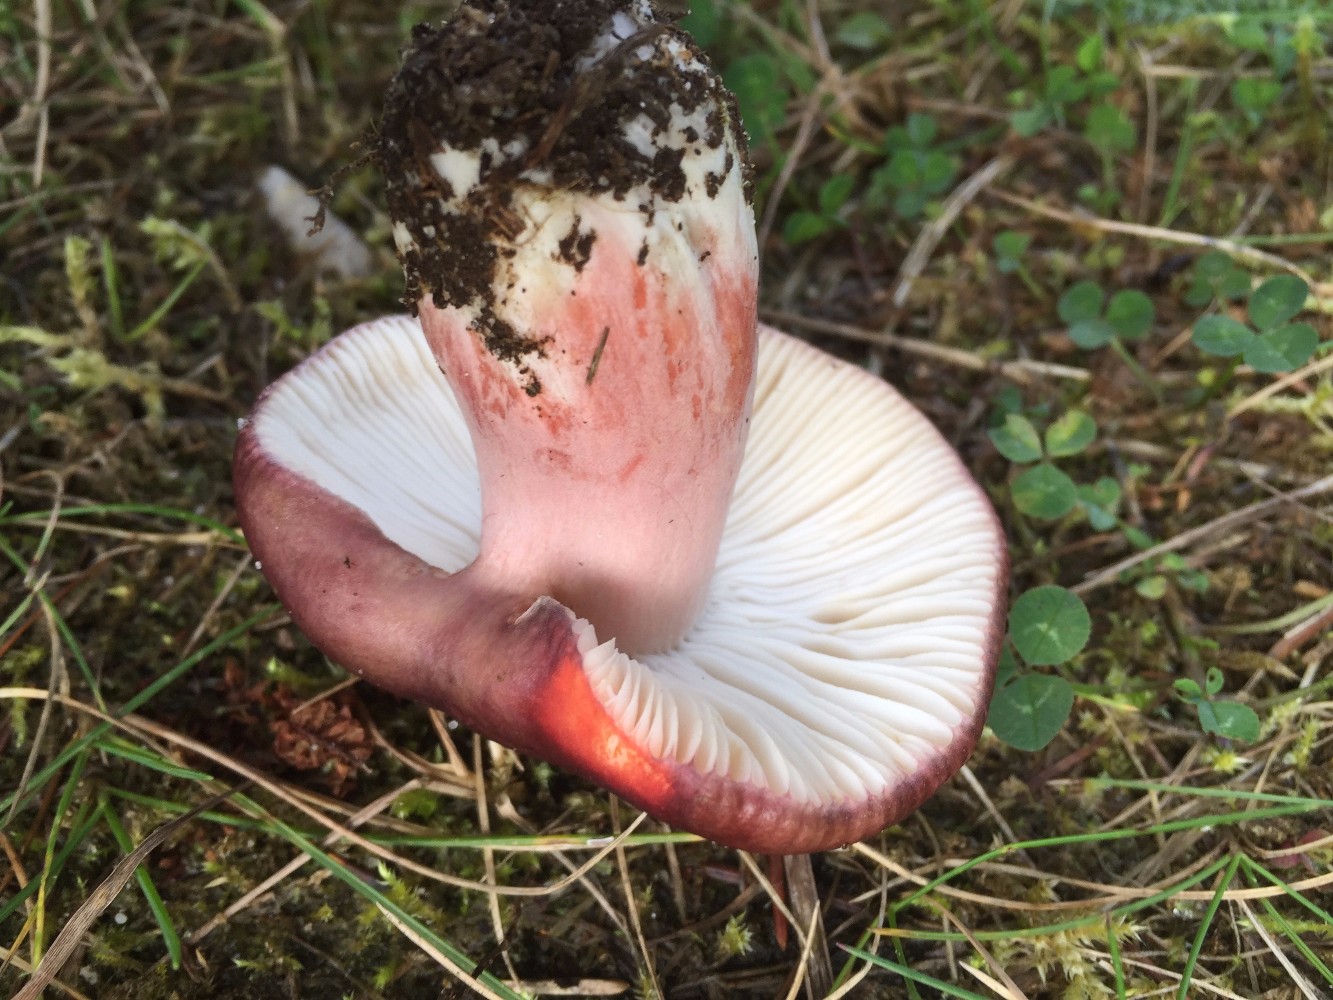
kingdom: Fungi
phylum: Basidiomycota
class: Agaricomycetes
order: Russulales
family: Russulaceae
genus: Russula
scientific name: Russula queletii
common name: Quélets skørhat
